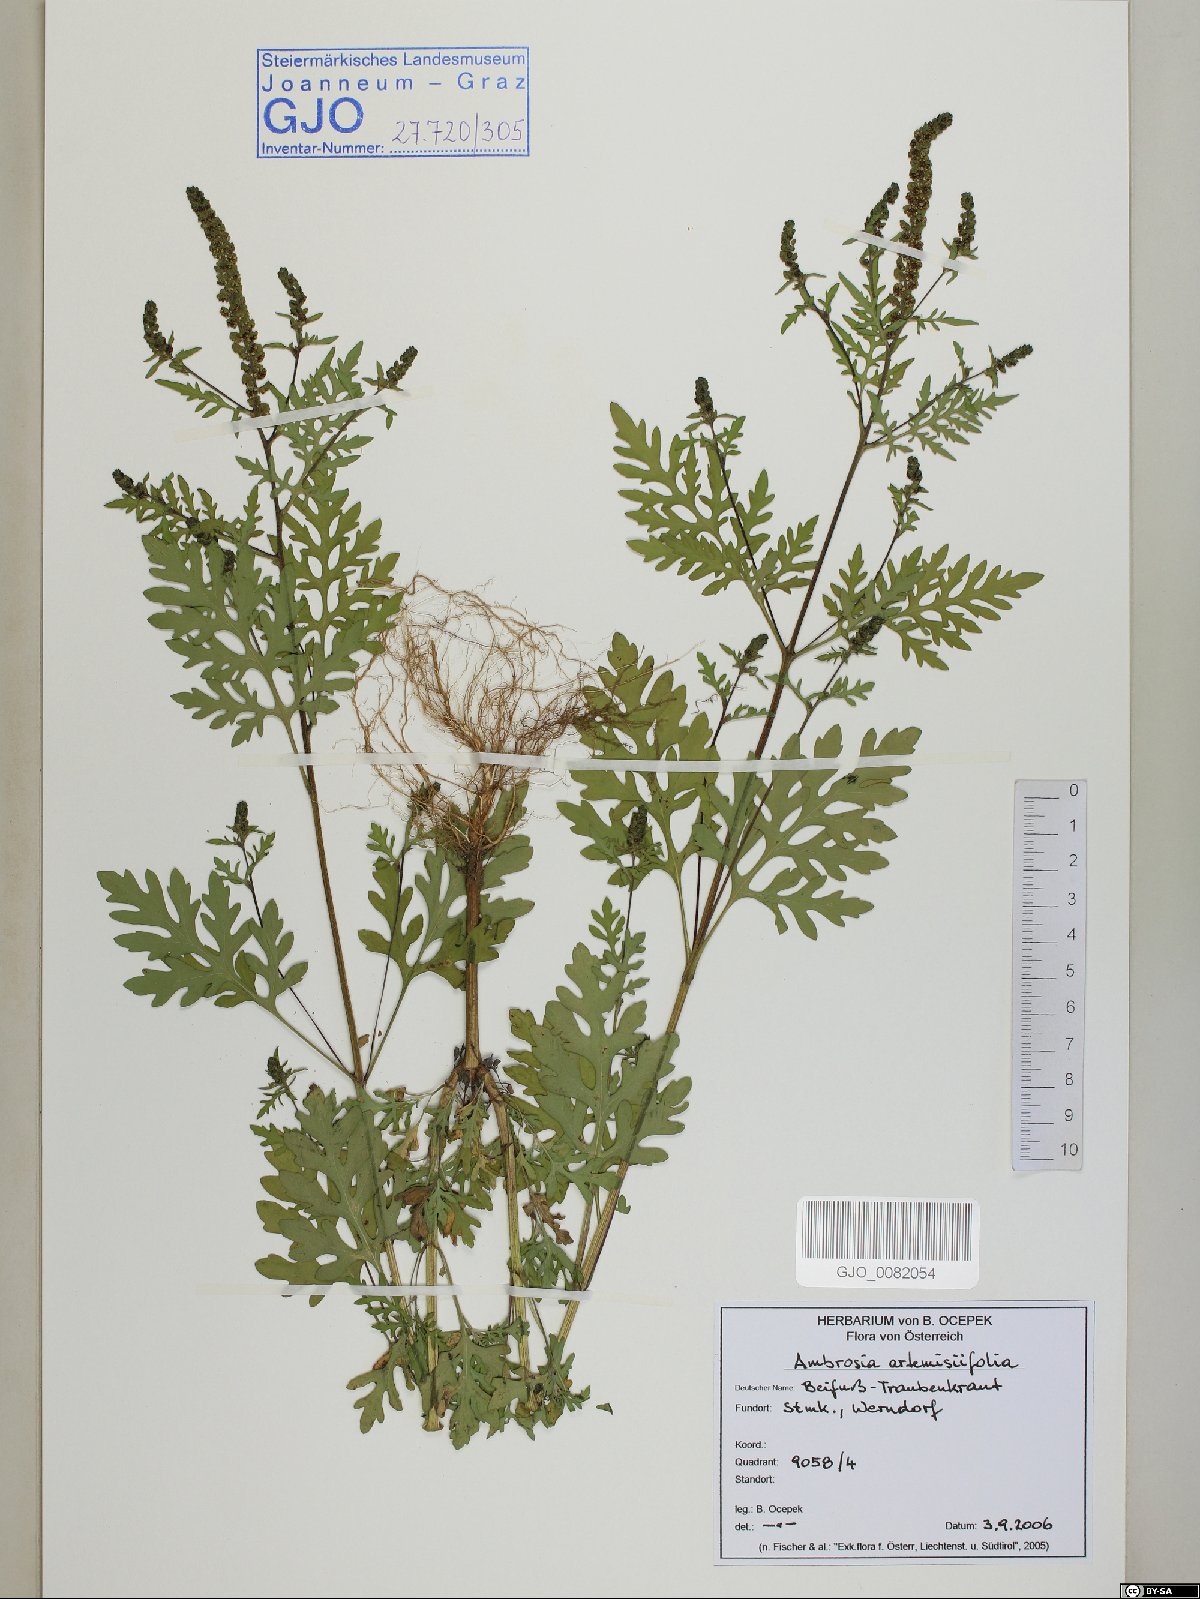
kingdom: Plantae
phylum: Tracheophyta
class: Magnoliopsida
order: Asterales
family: Asteraceae
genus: Ambrosia
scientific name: Ambrosia artemisiifolia
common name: Annual ragweed
